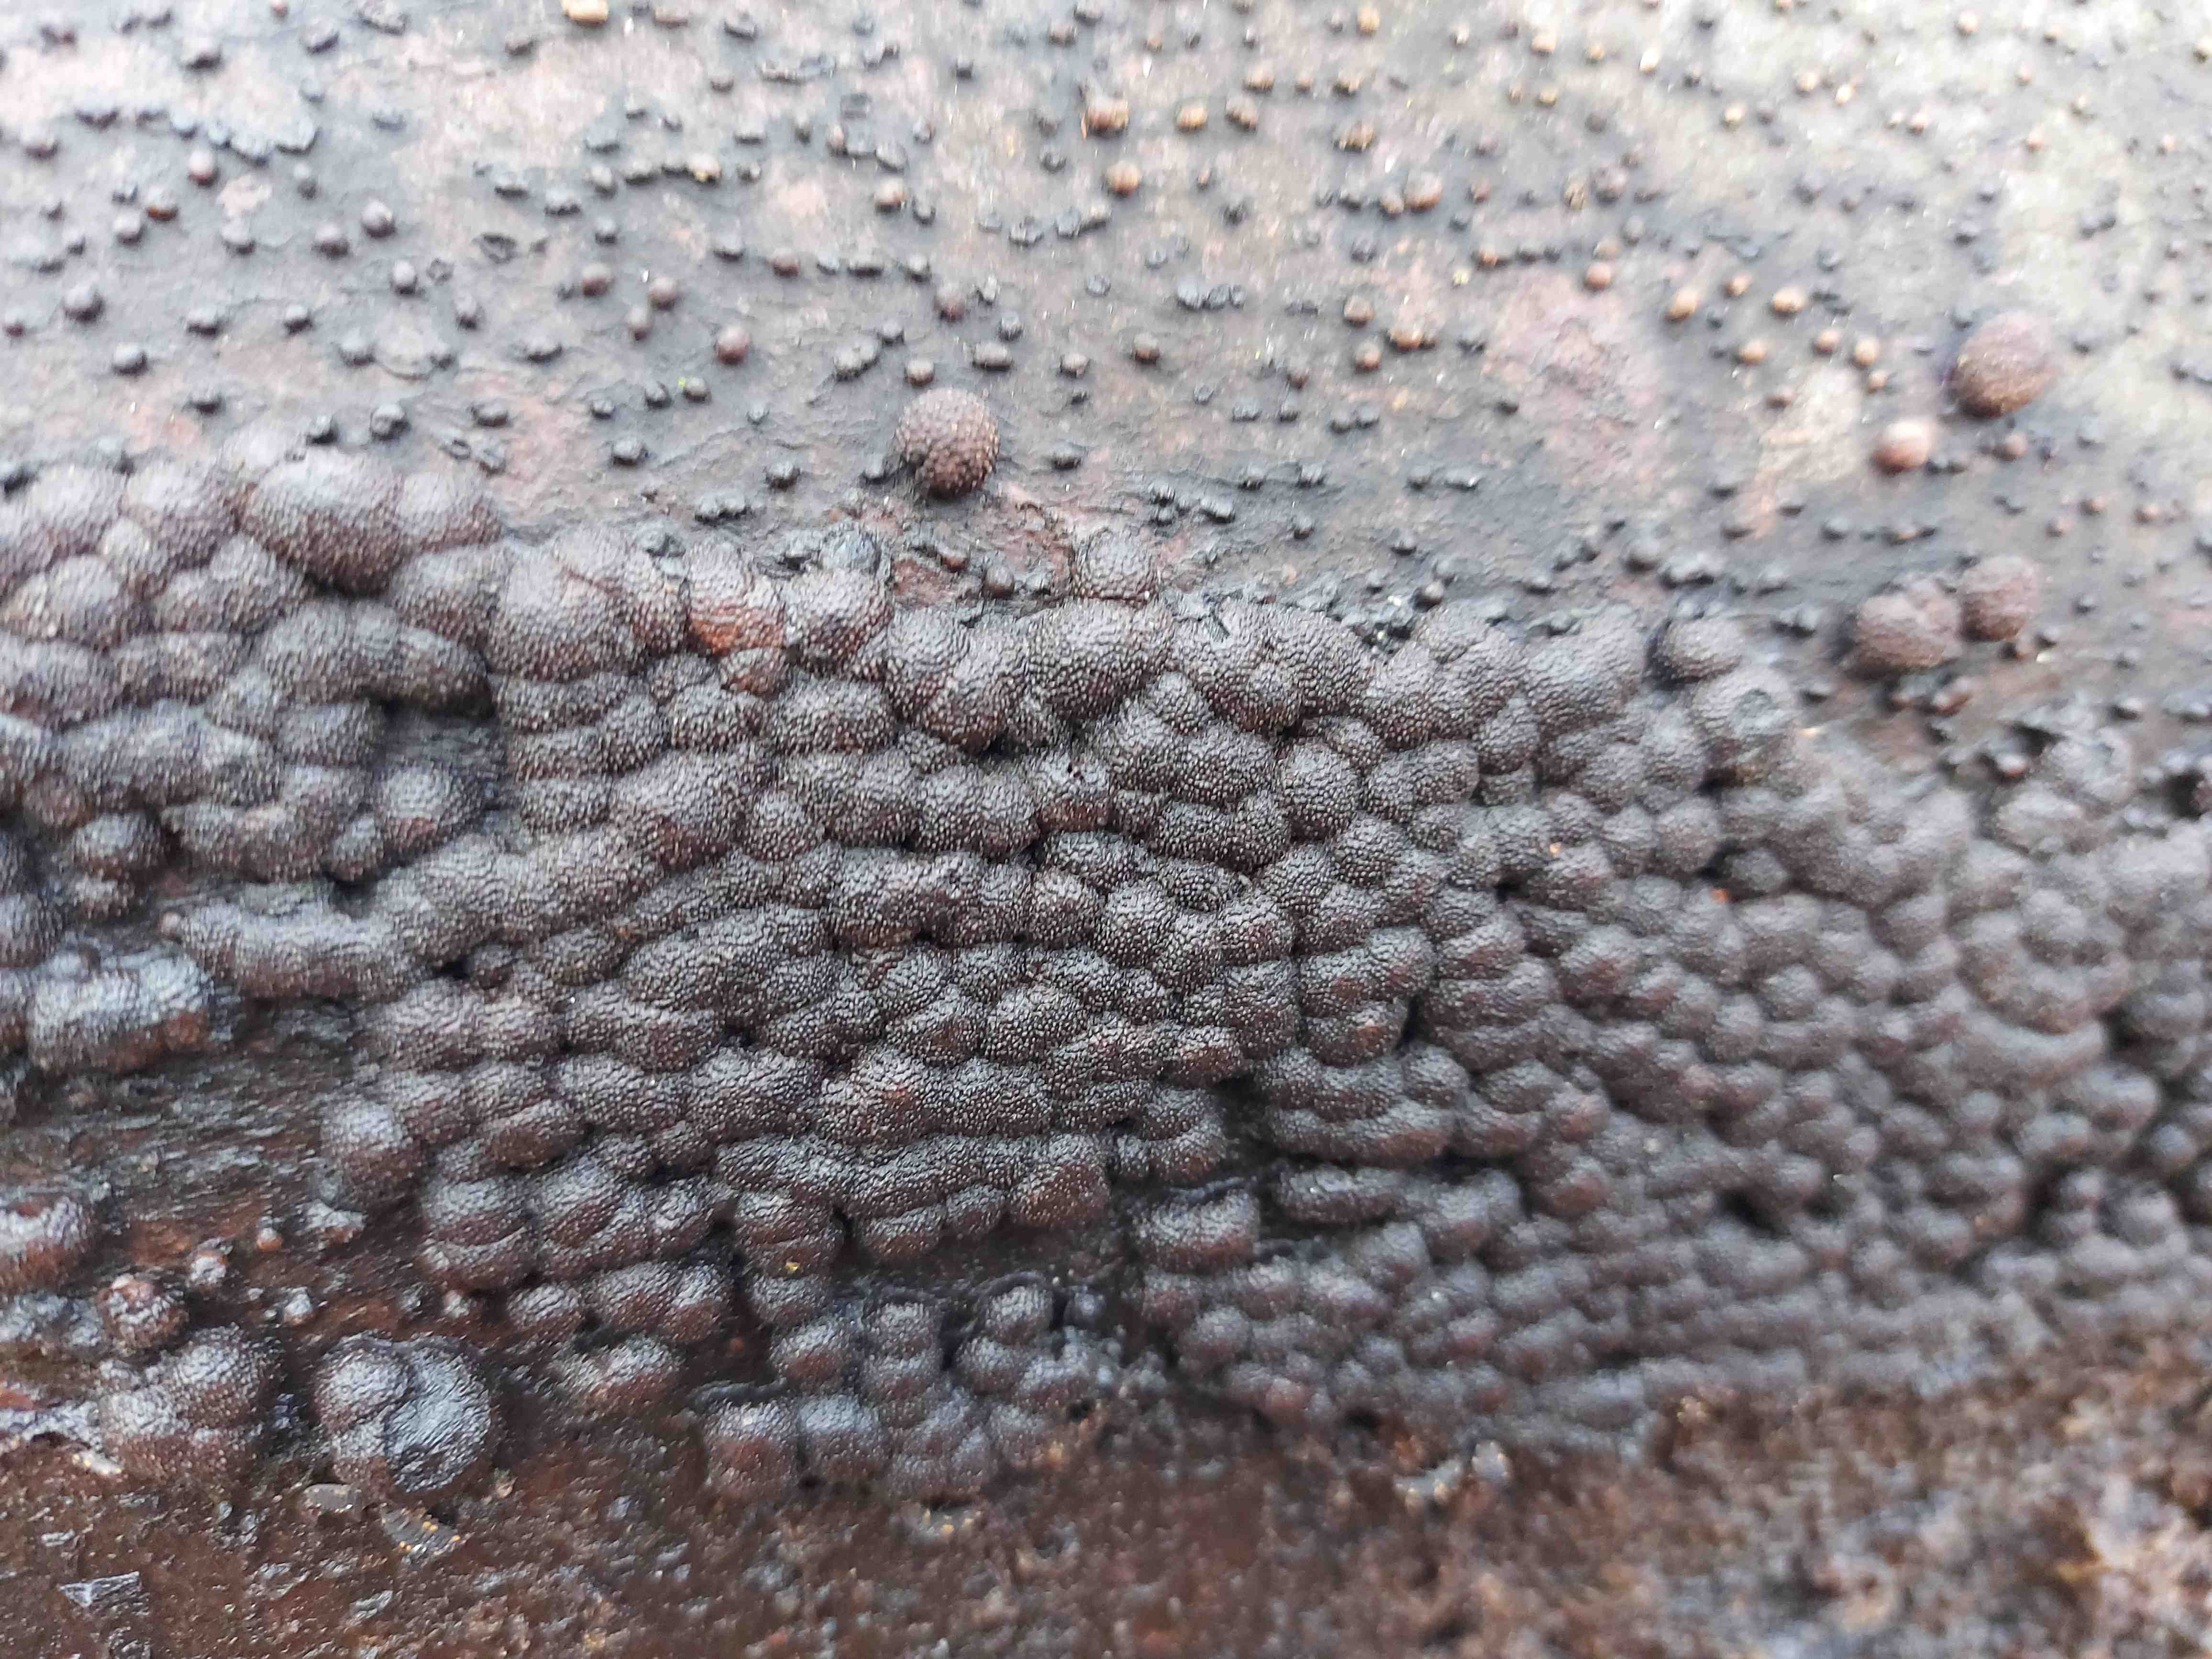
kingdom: Fungi
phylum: Ascomycota
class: Sordariomycetes
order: Xylariales
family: Hypoxylaceae
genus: Hypoxylon
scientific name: Hypoxylon
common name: kulbær
